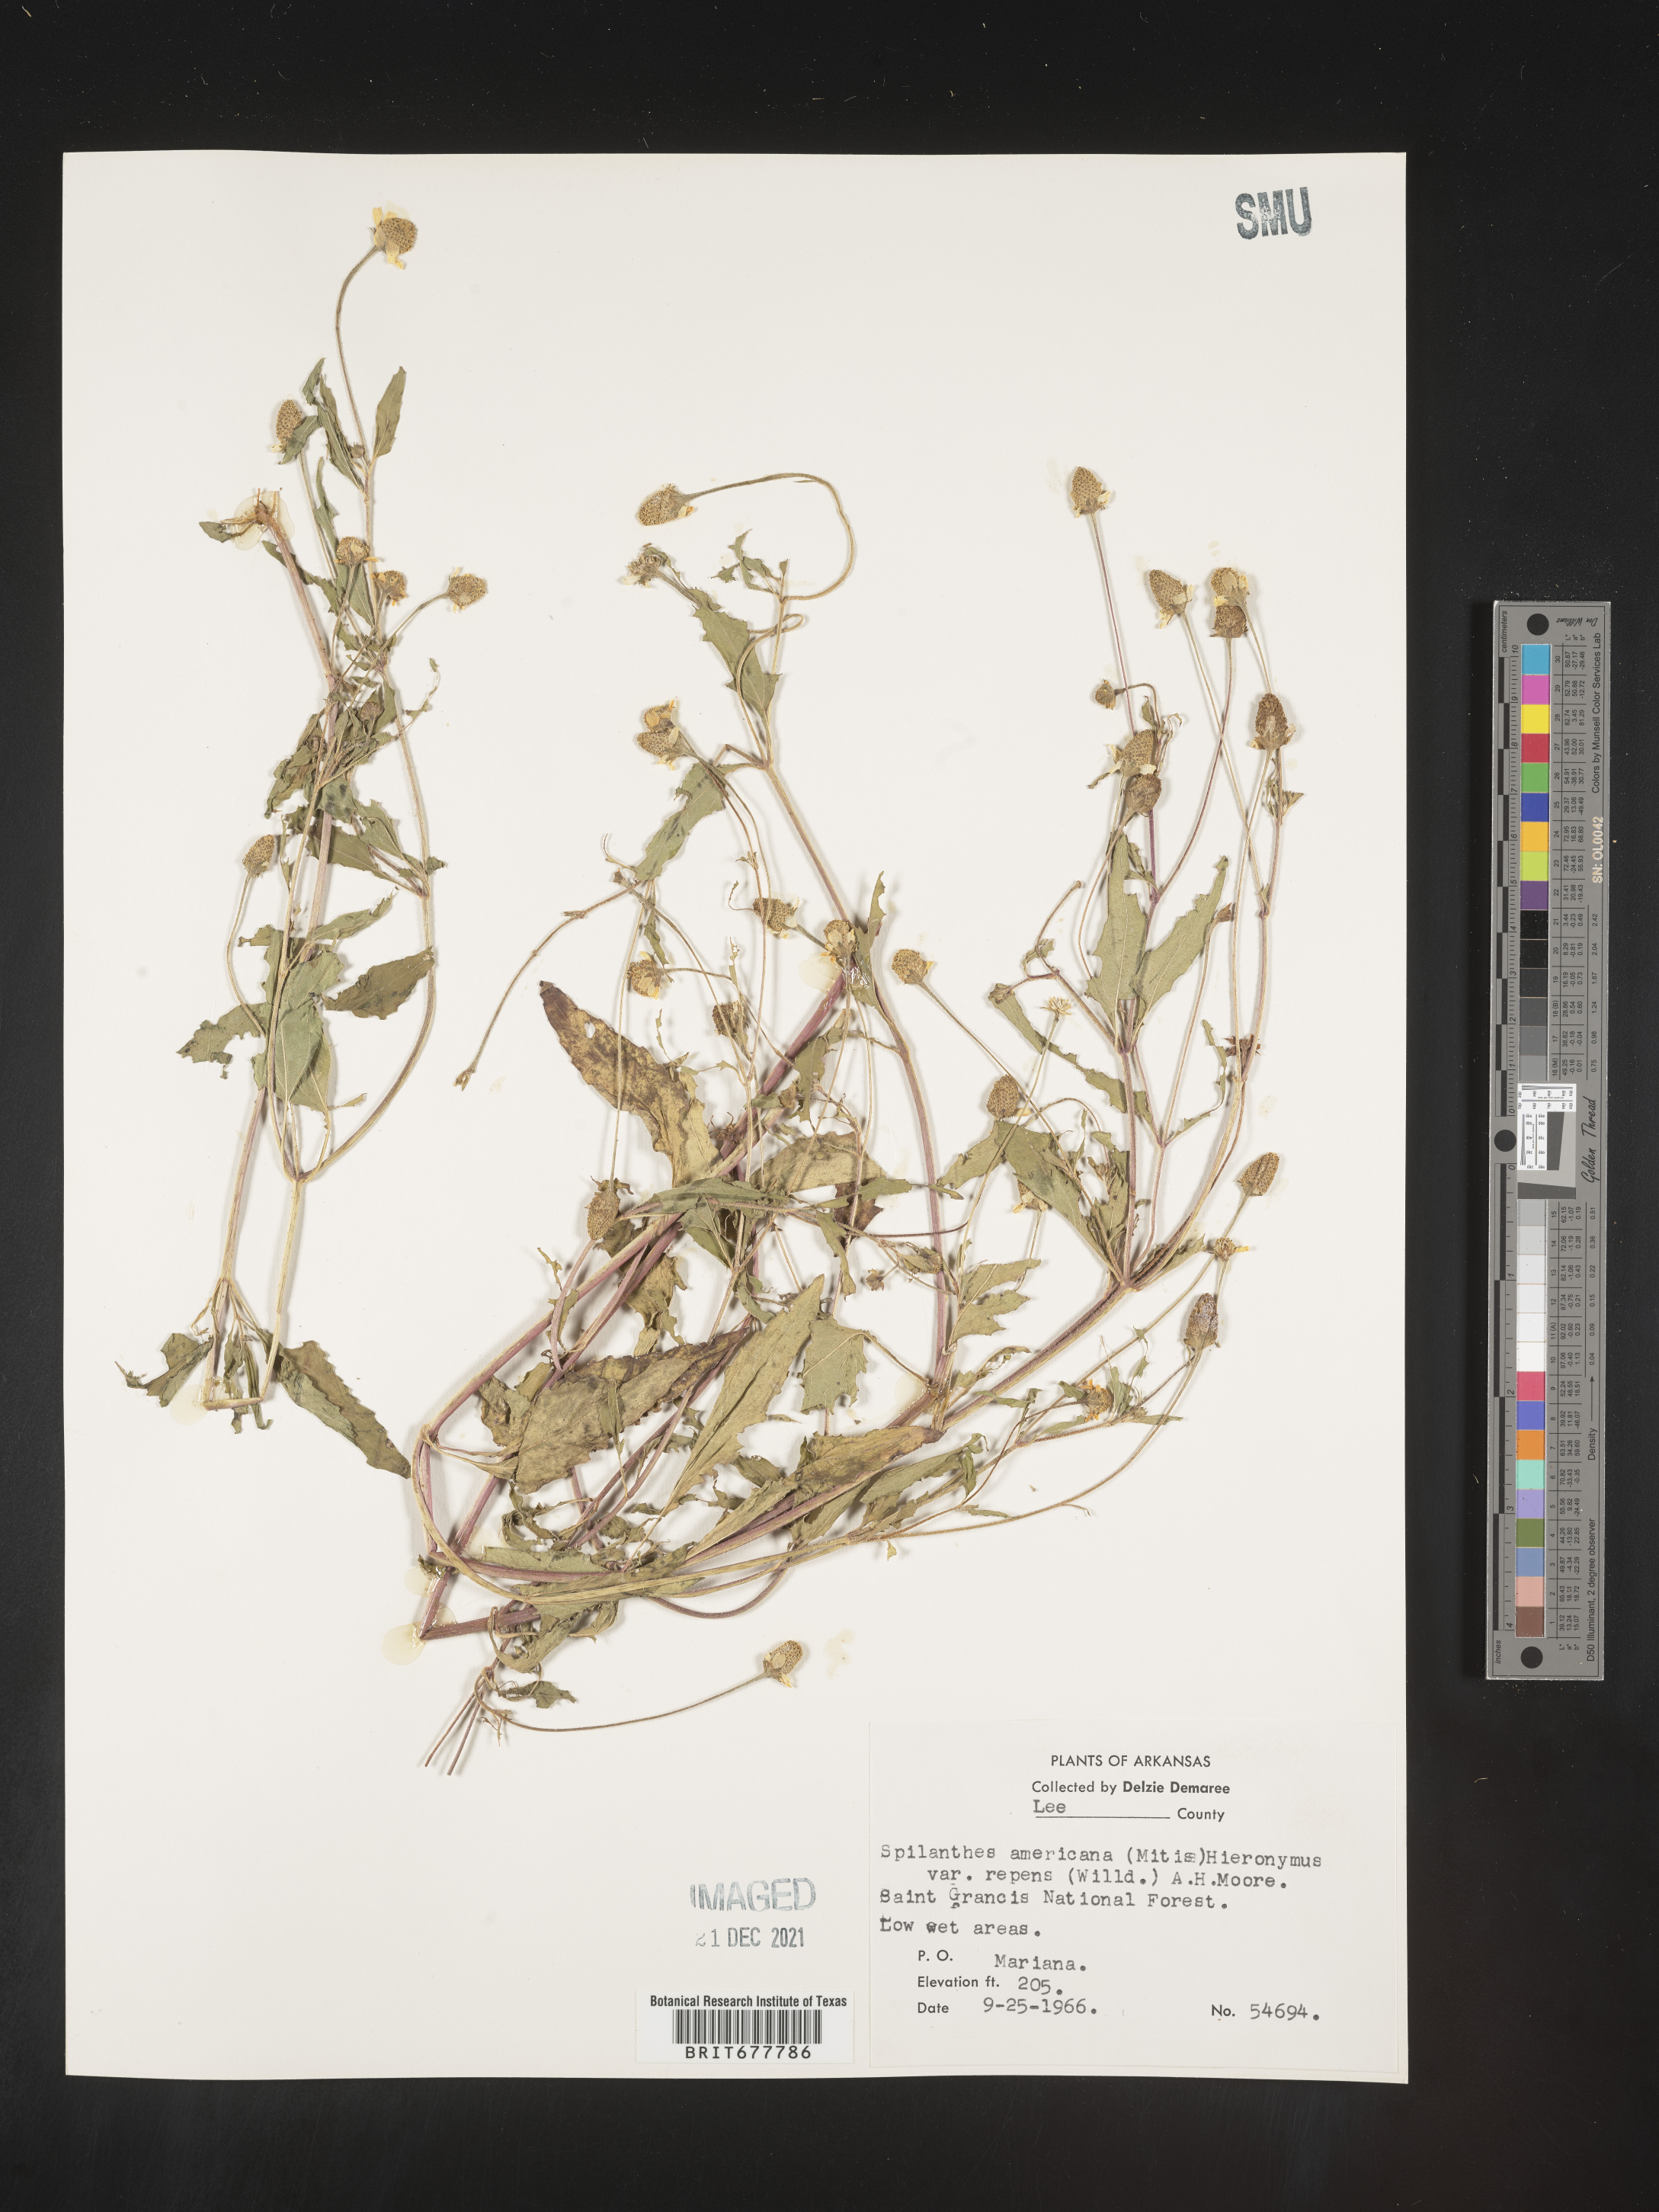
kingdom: Plantae
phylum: Tracheophyta
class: Magnoliopsida
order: Asterales
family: Asteraceae
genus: Spilanthes
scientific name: Spilanthes
